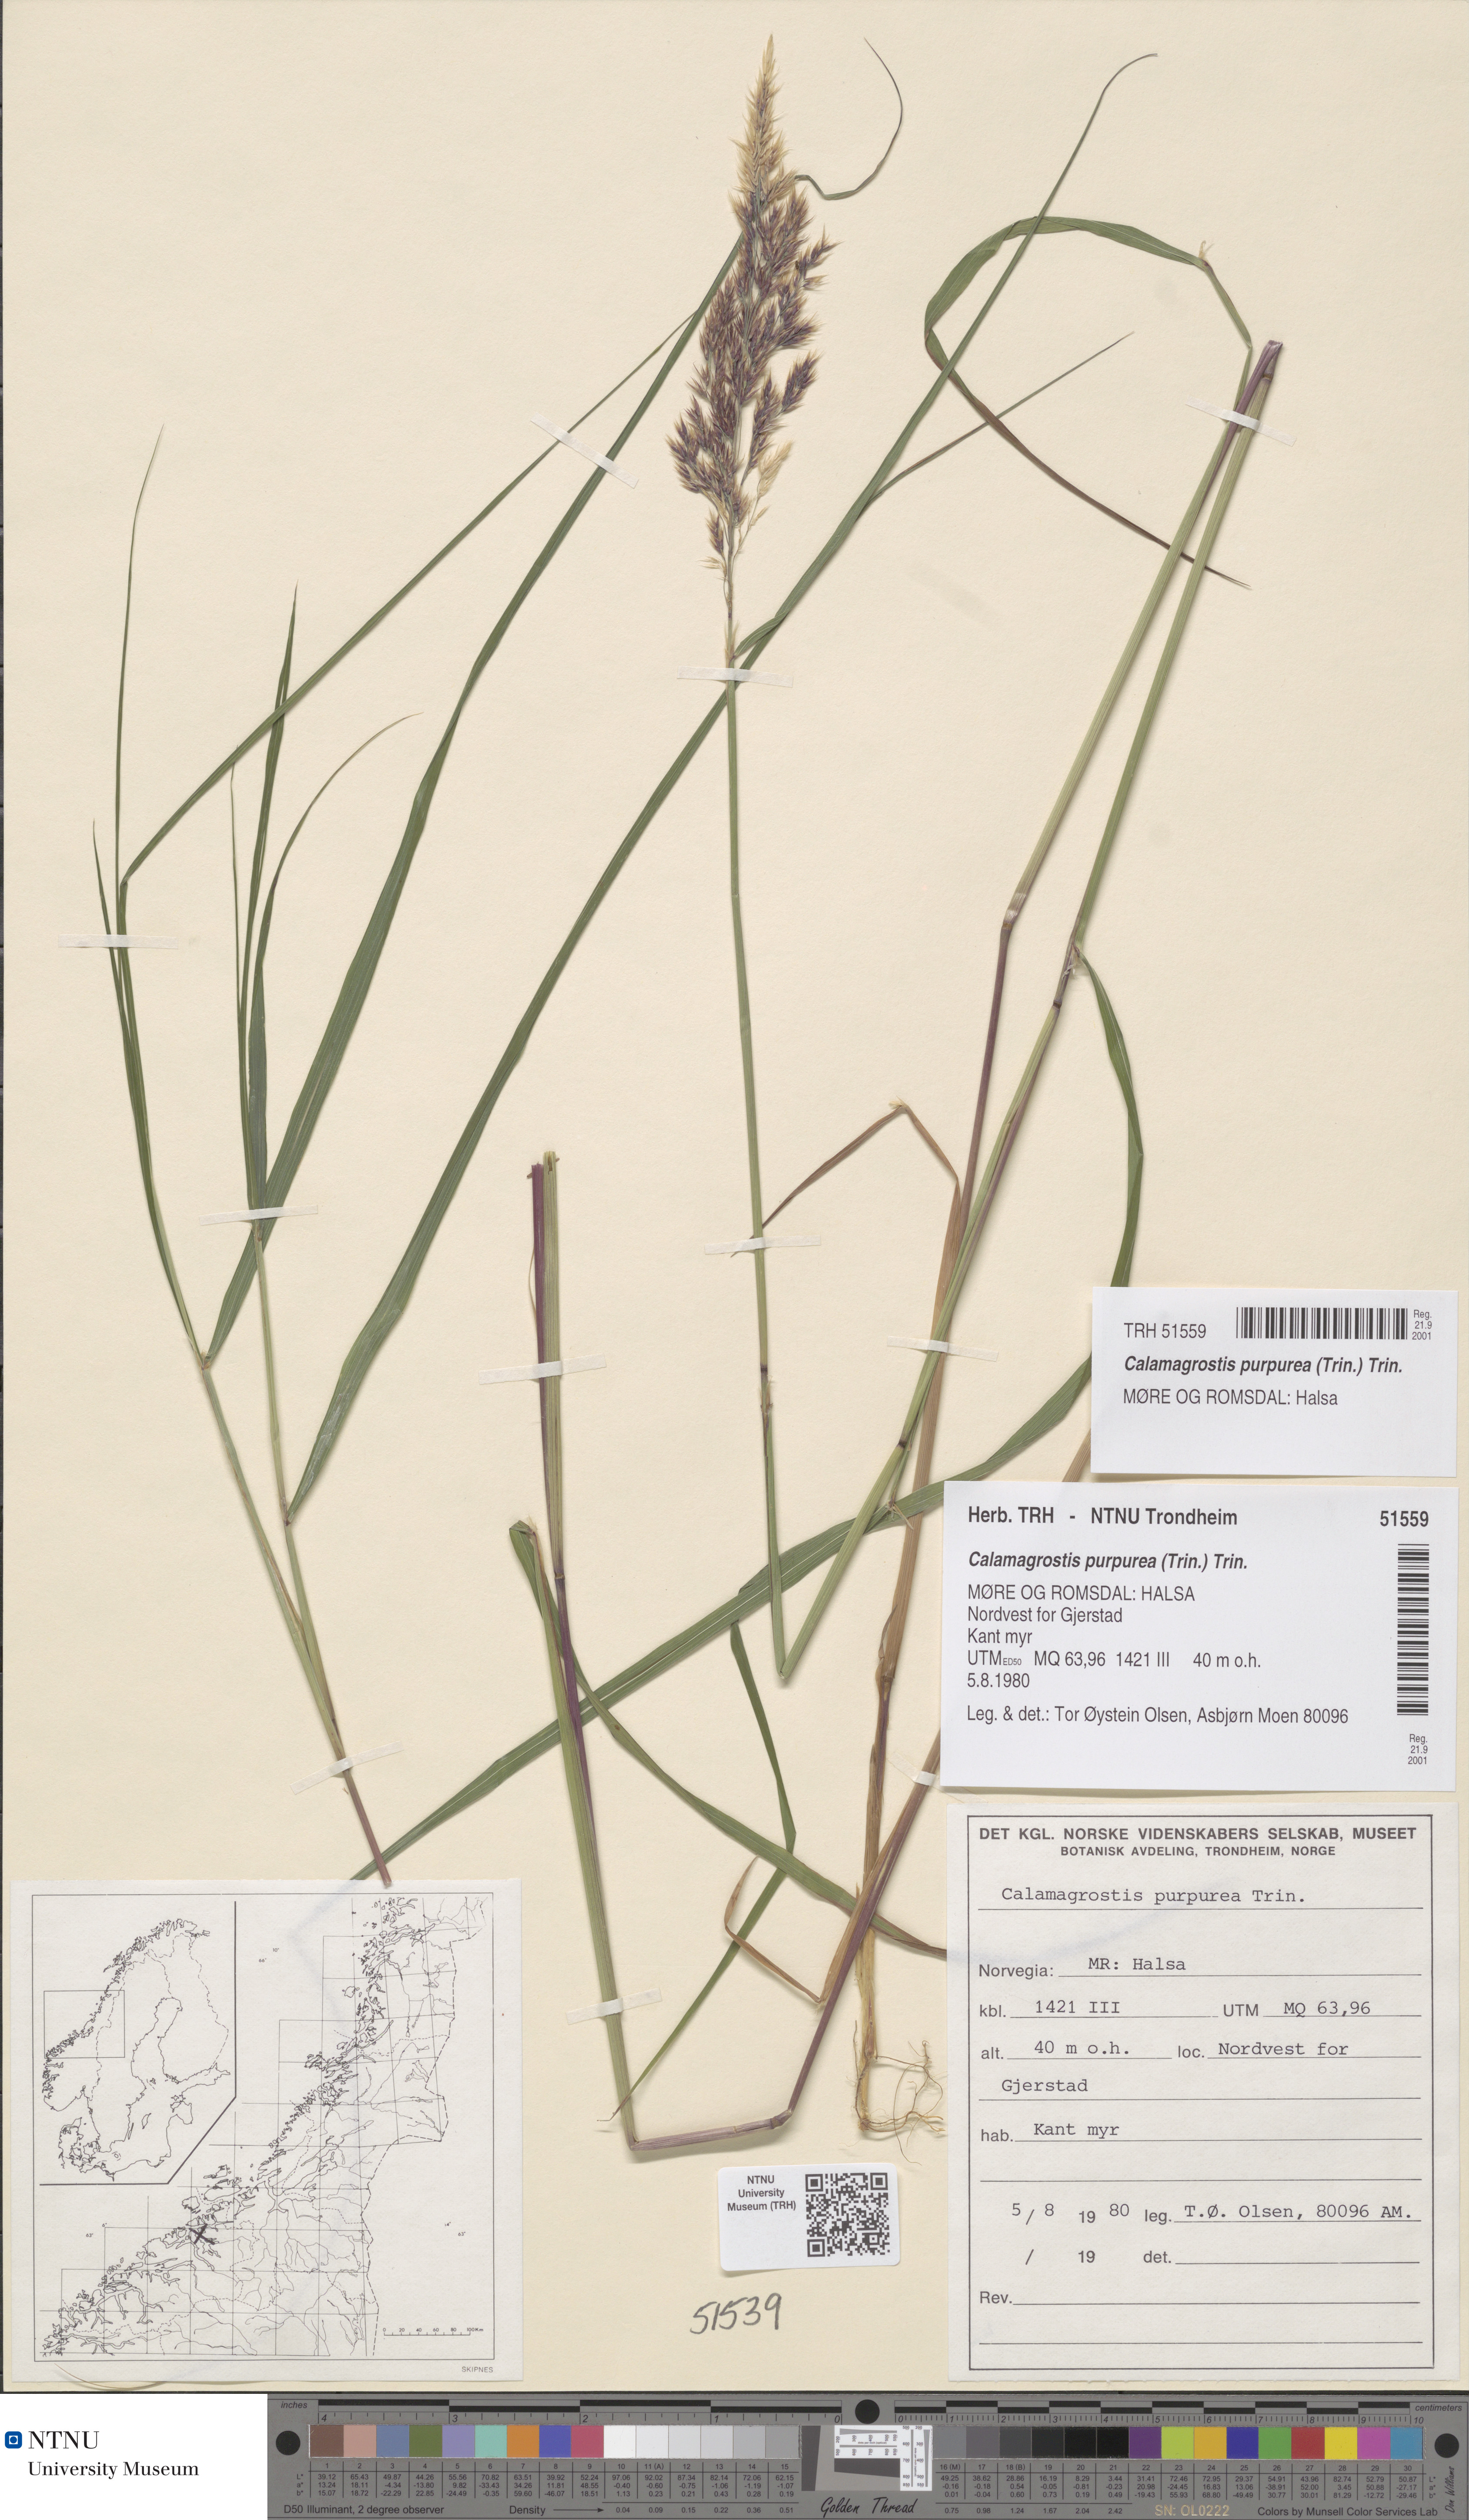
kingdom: Plantae
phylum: Tracheophyta
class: Liliopsida
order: Poales
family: Poaceae
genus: Calamagrostis
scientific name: Calamagrostis purpurea
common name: Scandinavian small-reed
